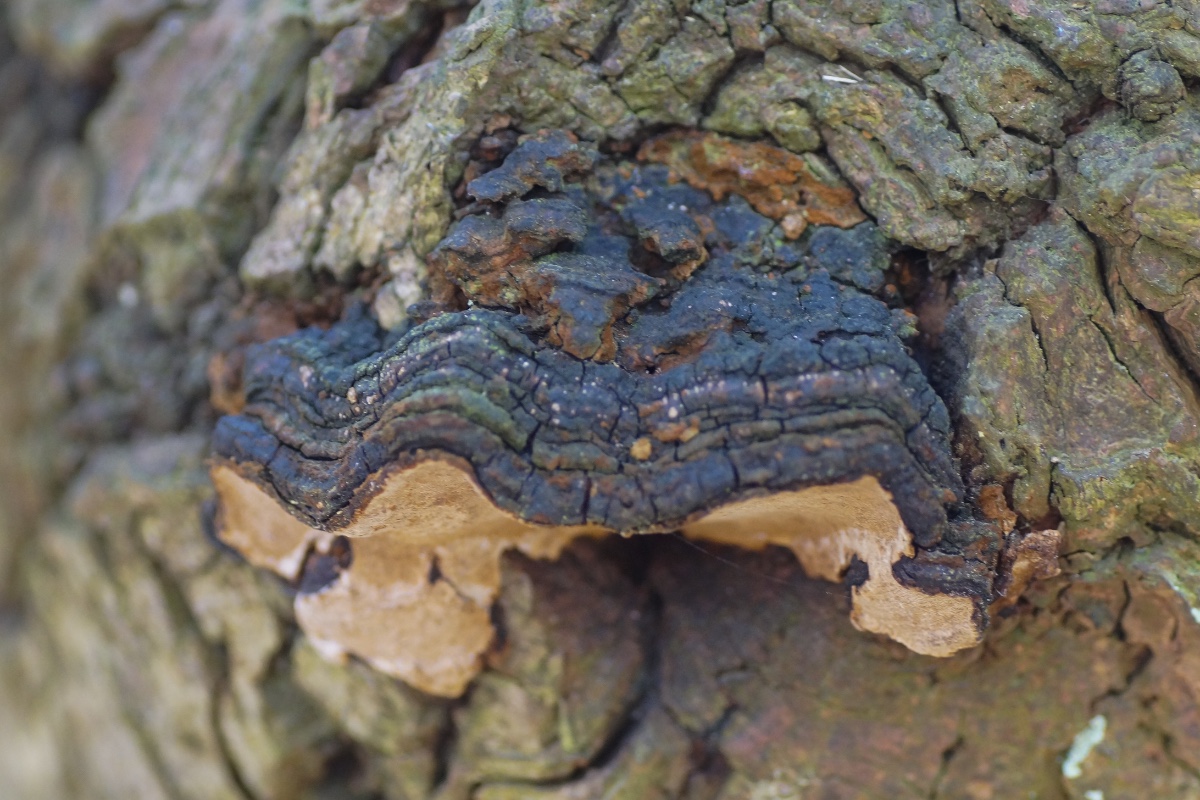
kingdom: Fungi
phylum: Basidiomycota
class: Agaricomycetes
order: Hymenochaetales
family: Hymenochaetaceae
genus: Phellinopsis
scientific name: Phellinopsis conchata
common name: pile-ildporesvamp
